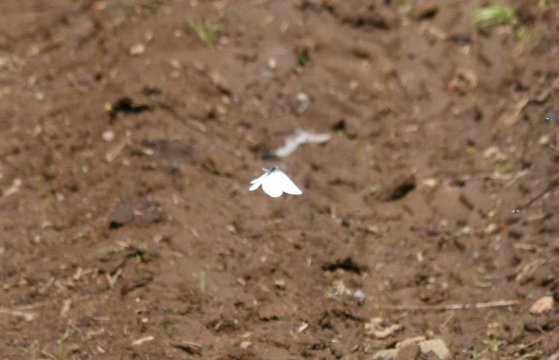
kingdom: Animalia
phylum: Arthropoda
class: Insecta
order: Lepidoptera
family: Pieridae
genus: Pieris
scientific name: Pieris oleracea
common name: Mustard White
